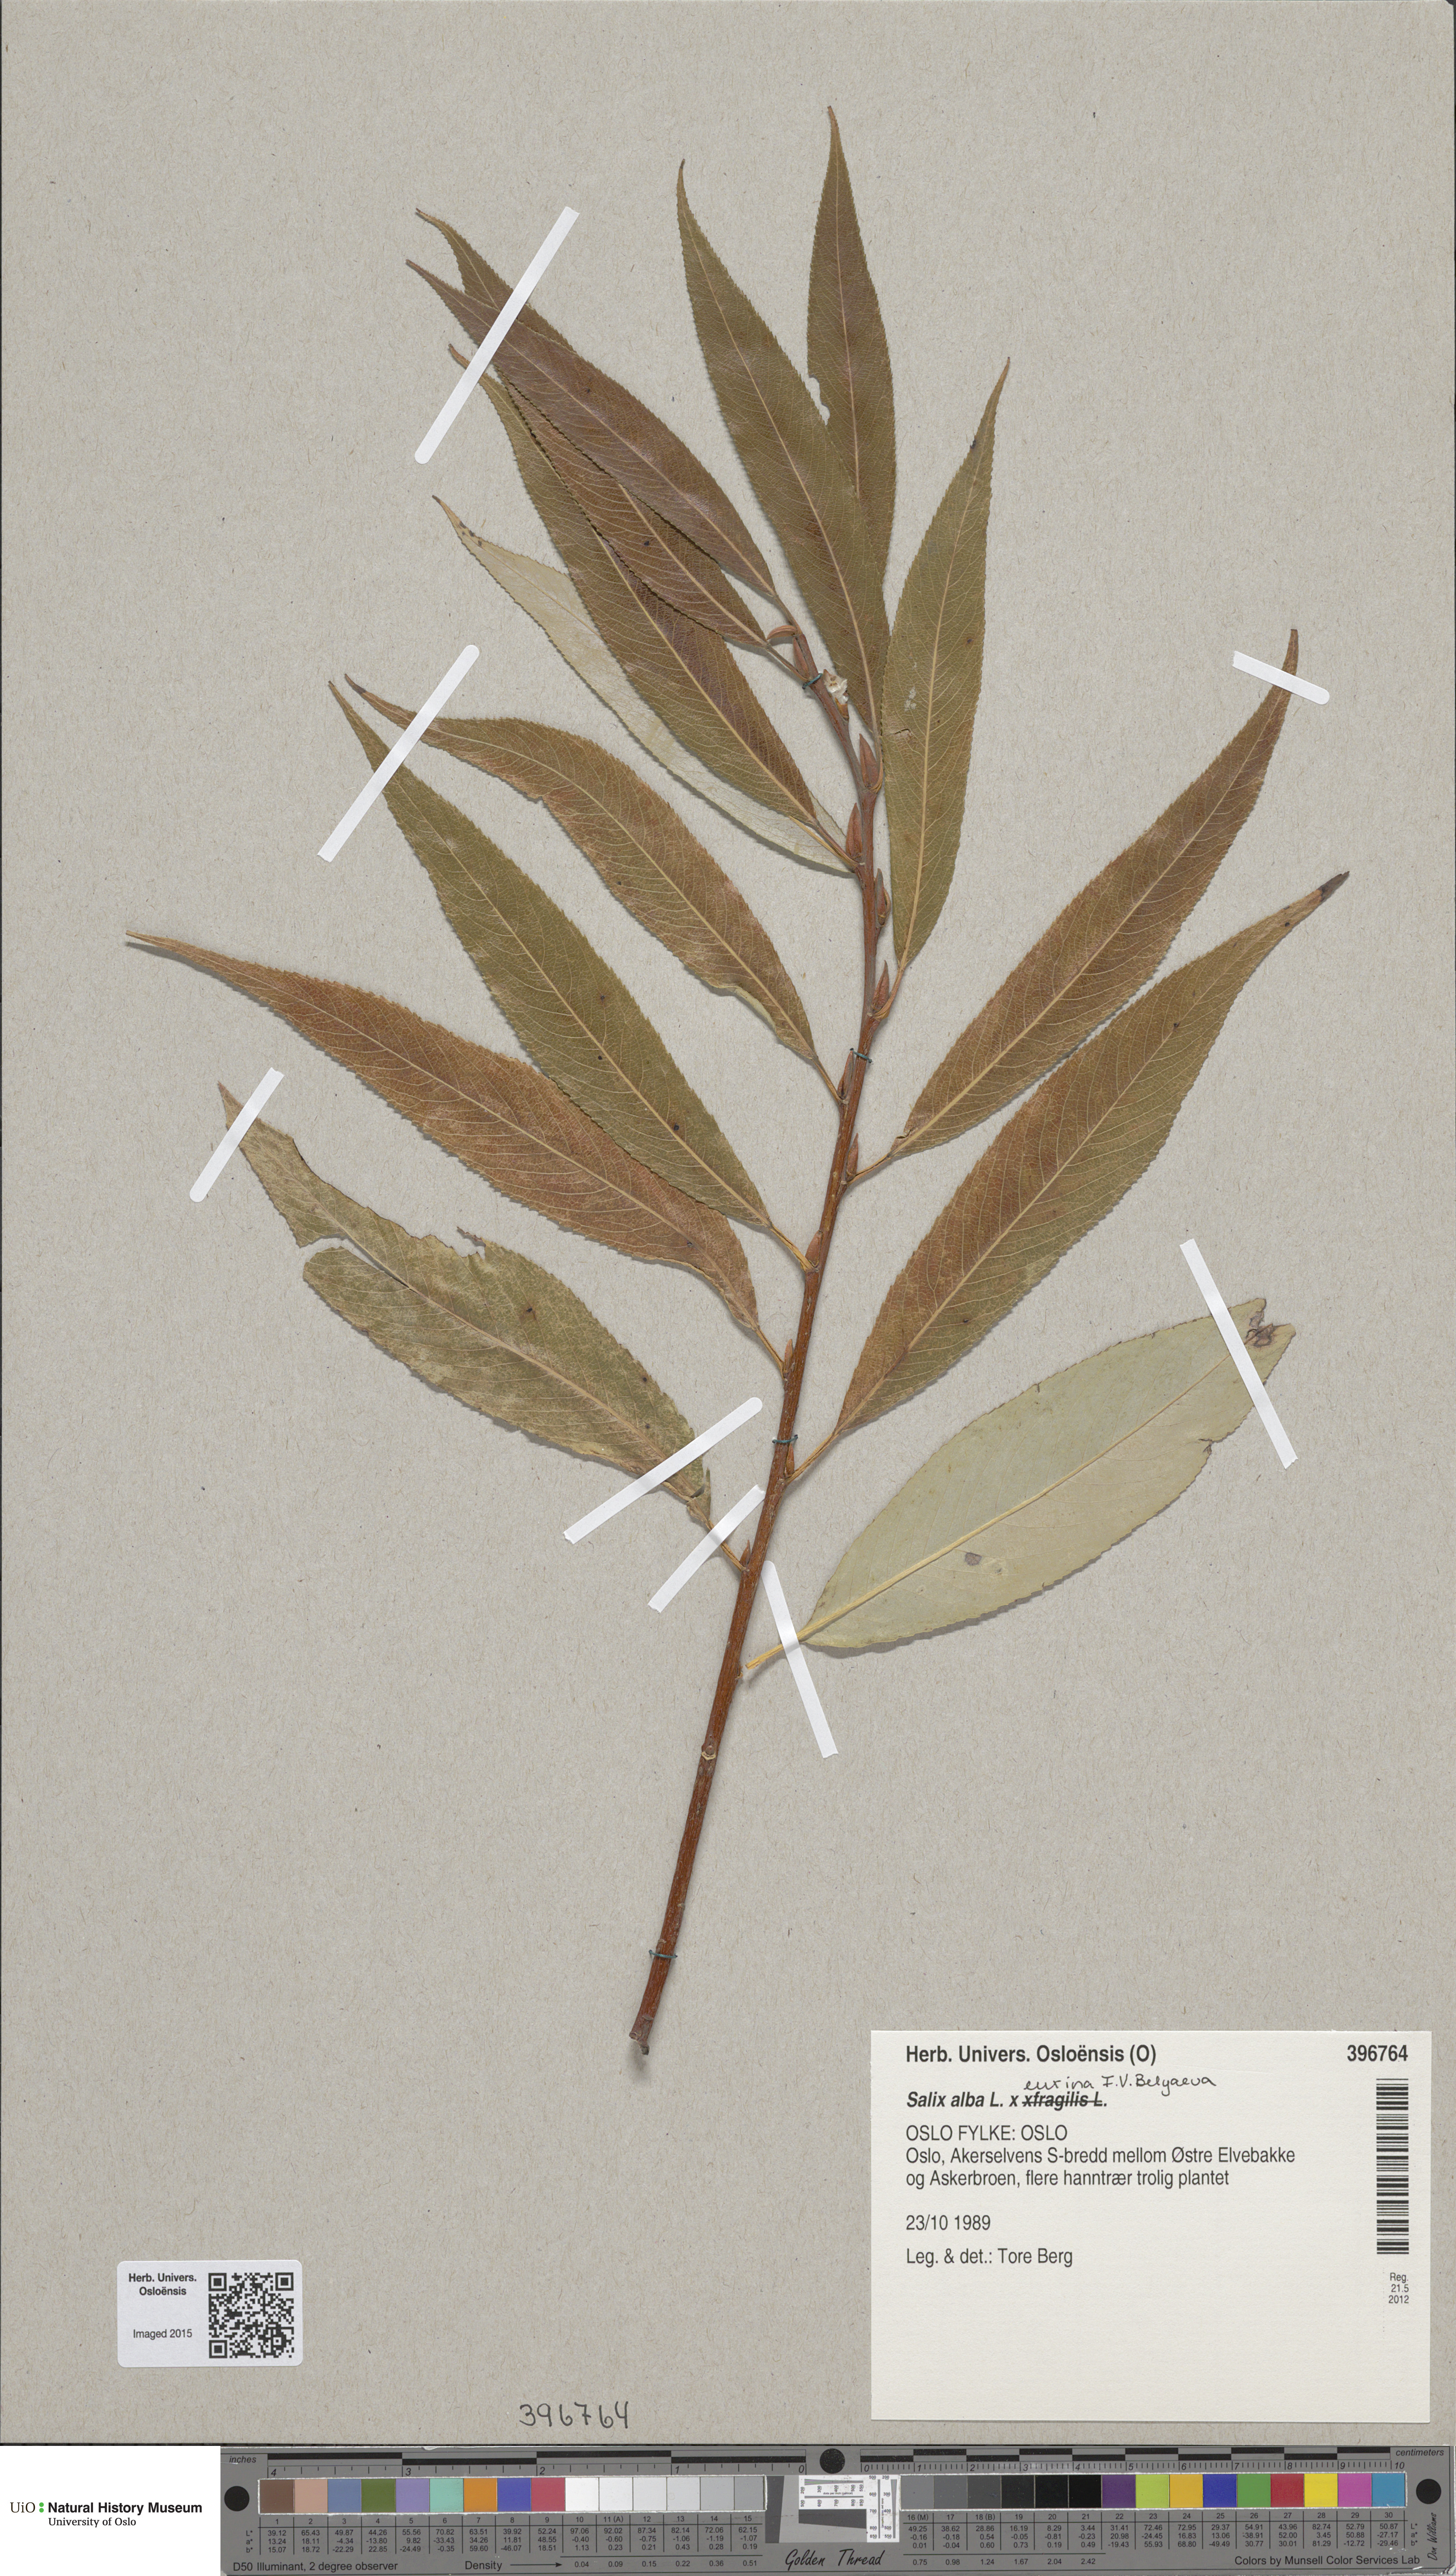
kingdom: Plantae
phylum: Tracheophyta
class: Magnoliopsida
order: Malpighiales
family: Salicaceae
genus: Salix
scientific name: Salix
